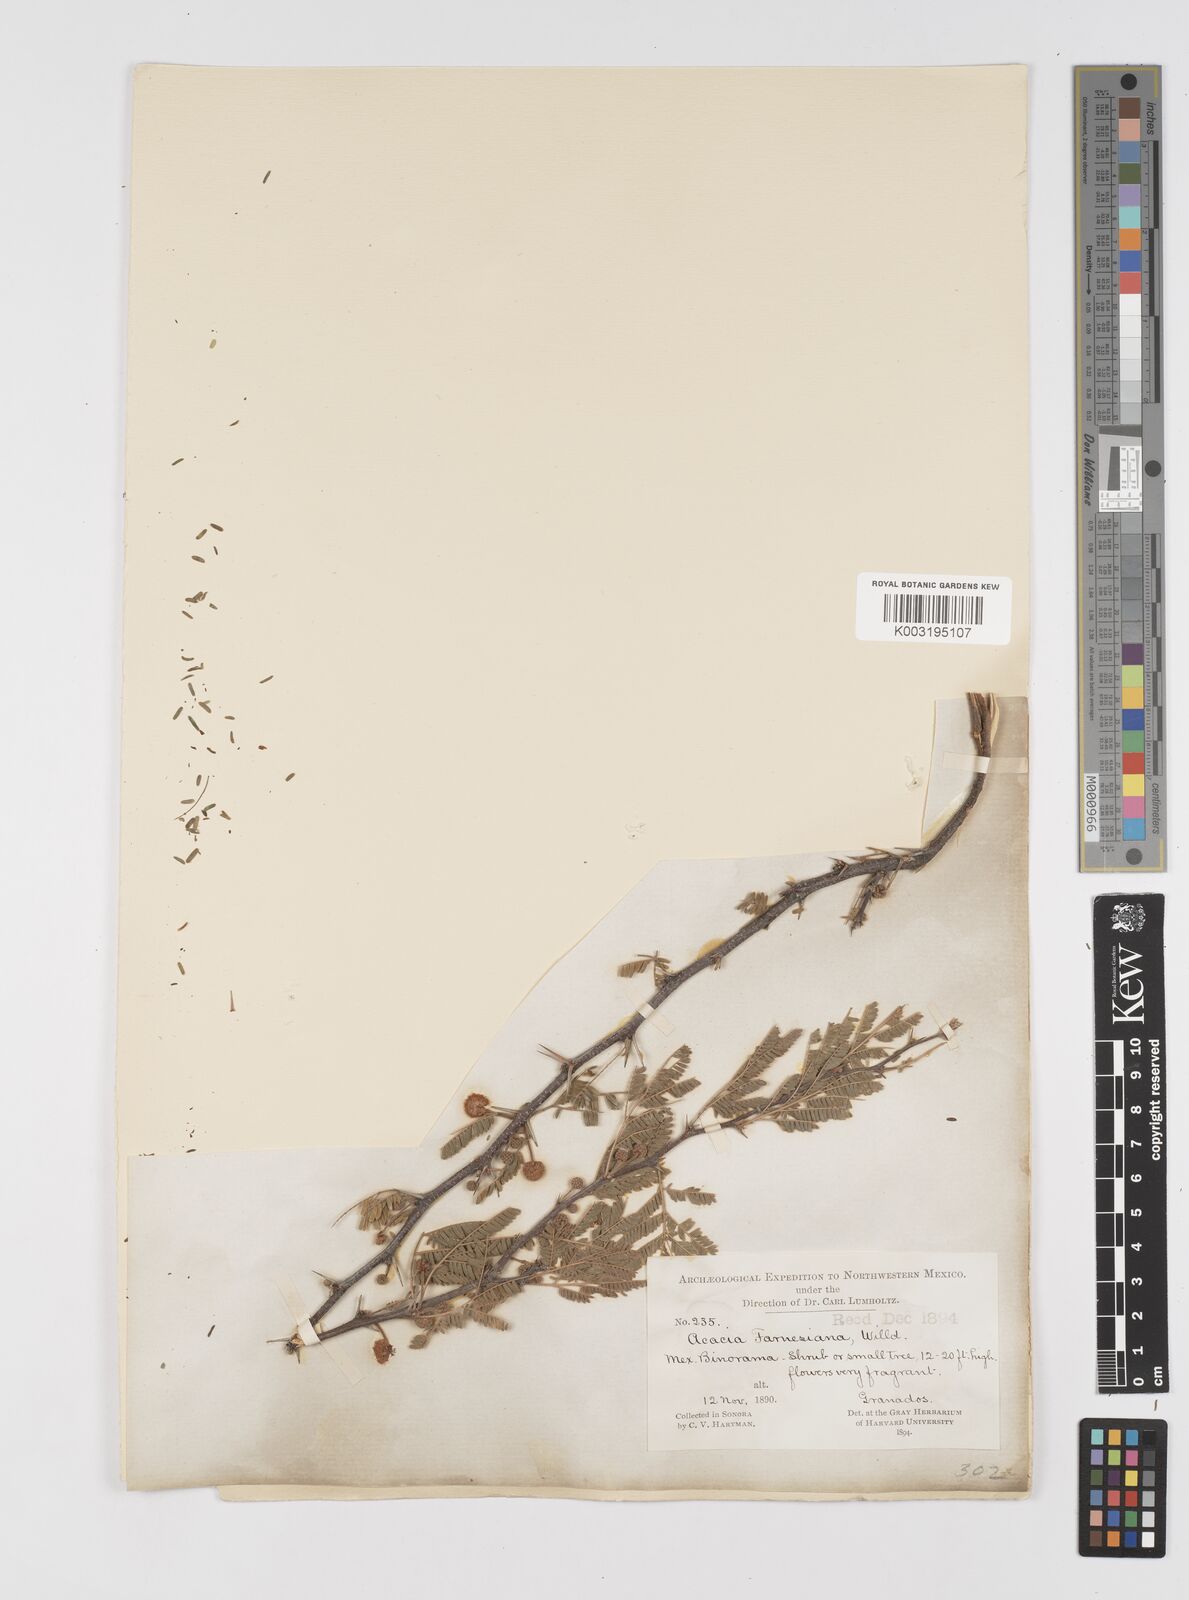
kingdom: Plantae
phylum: Tracheophyta
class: Magnoliopsida
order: Fabales
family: Fabaceae
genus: Vachellia
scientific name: Vachellia farnesiana
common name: Sweet acacia
